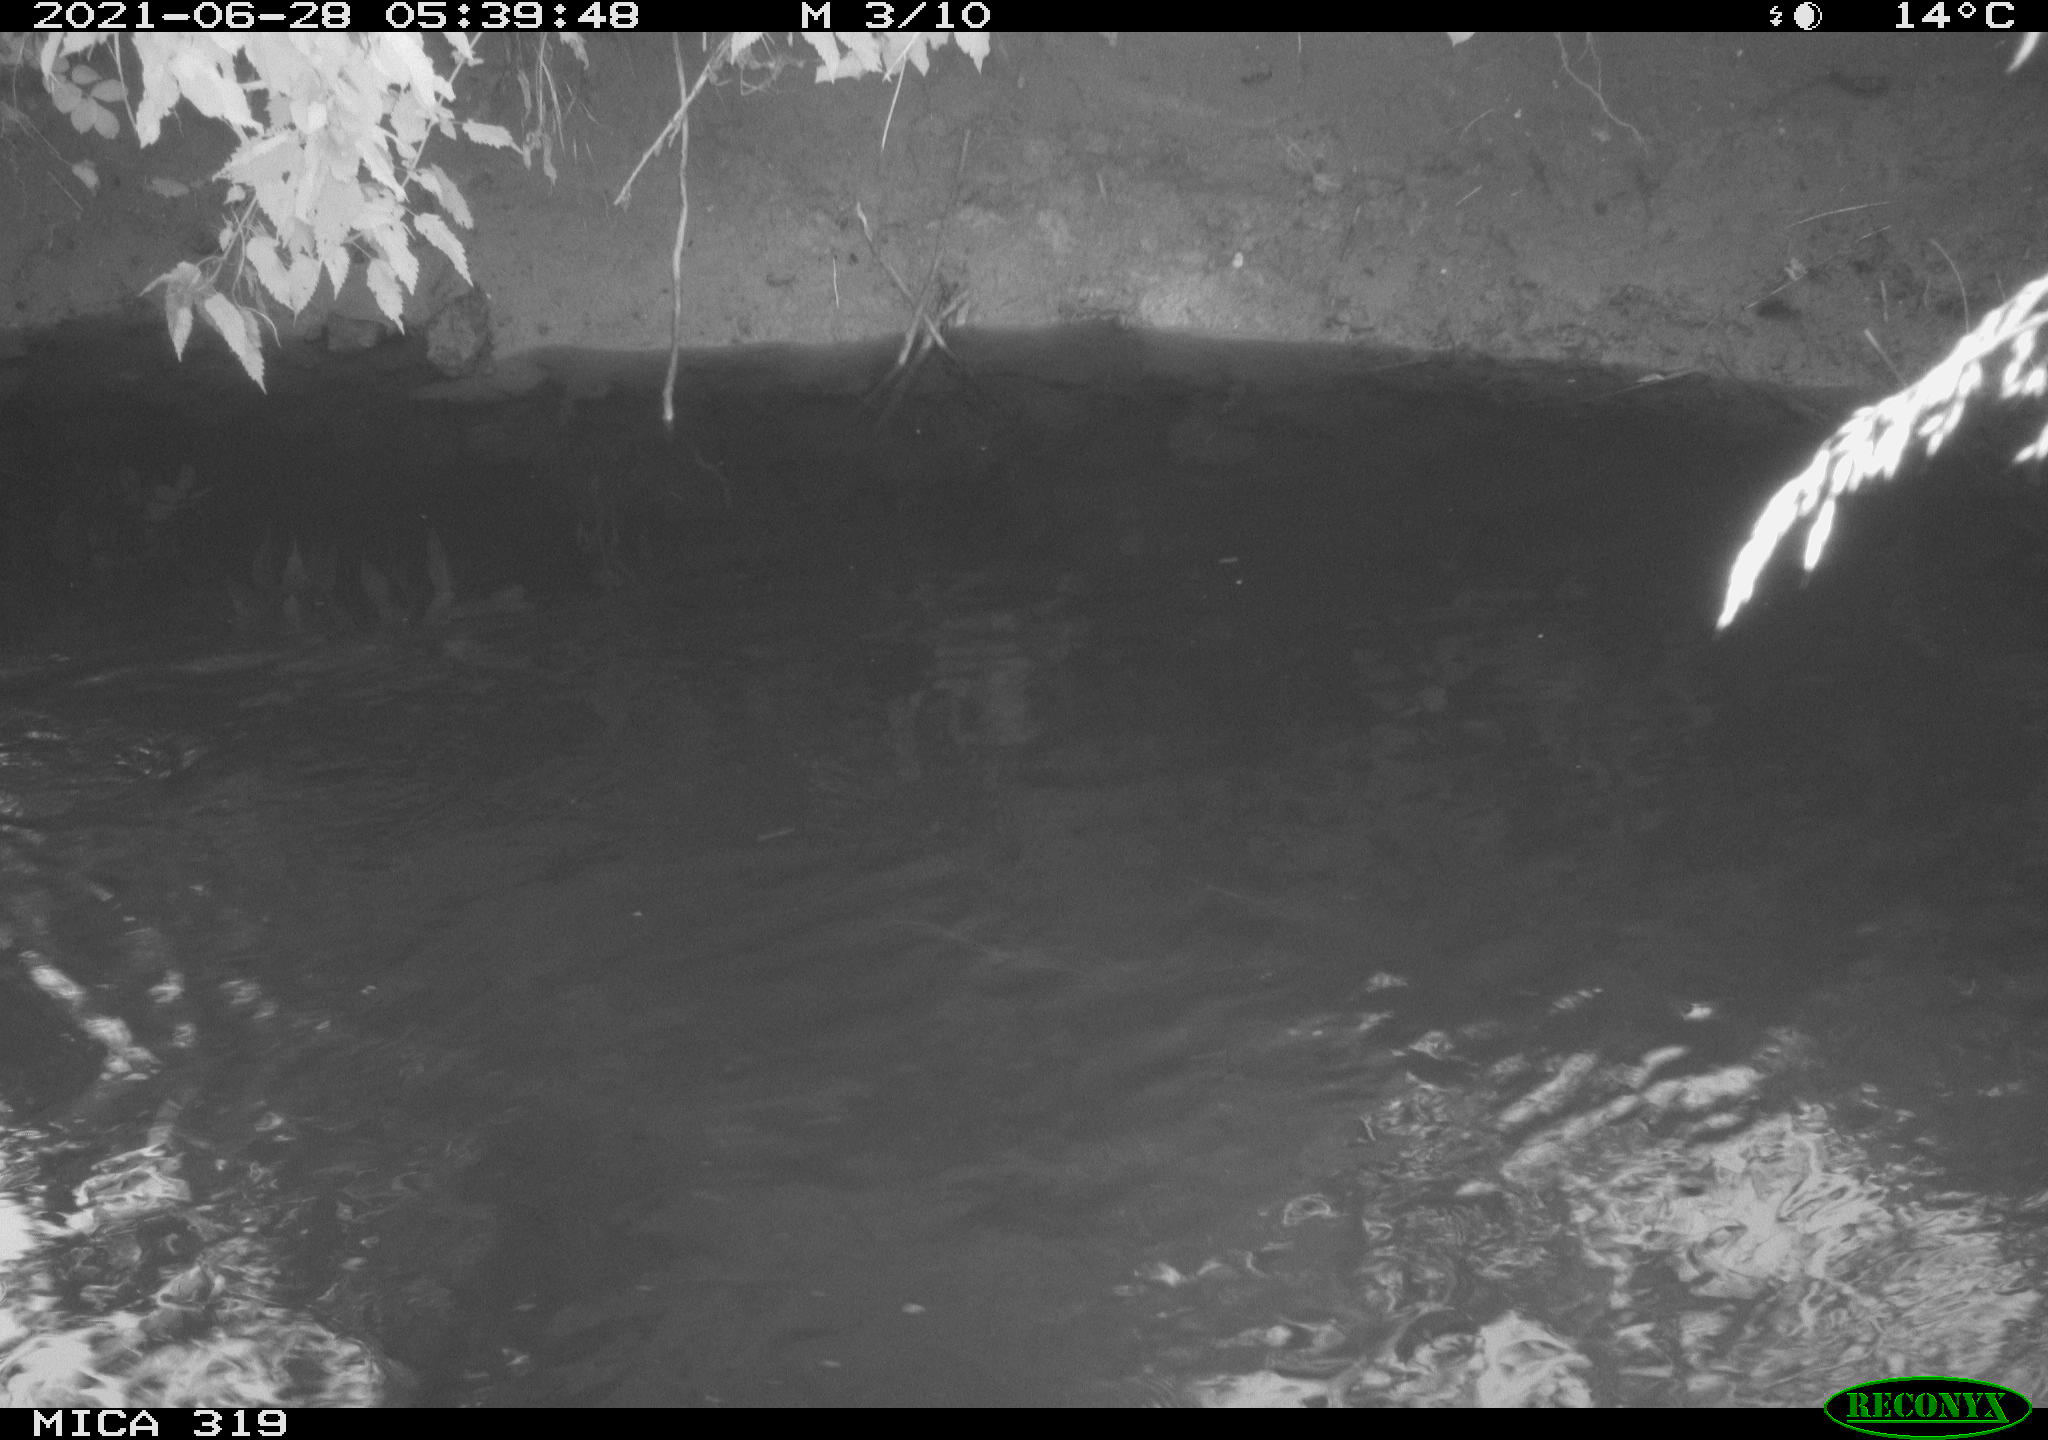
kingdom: Animalia
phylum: Chordata
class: Aves
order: Anseriformes
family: Anatidae
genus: Anas
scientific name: Anas platyrhynchos
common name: Mallard
